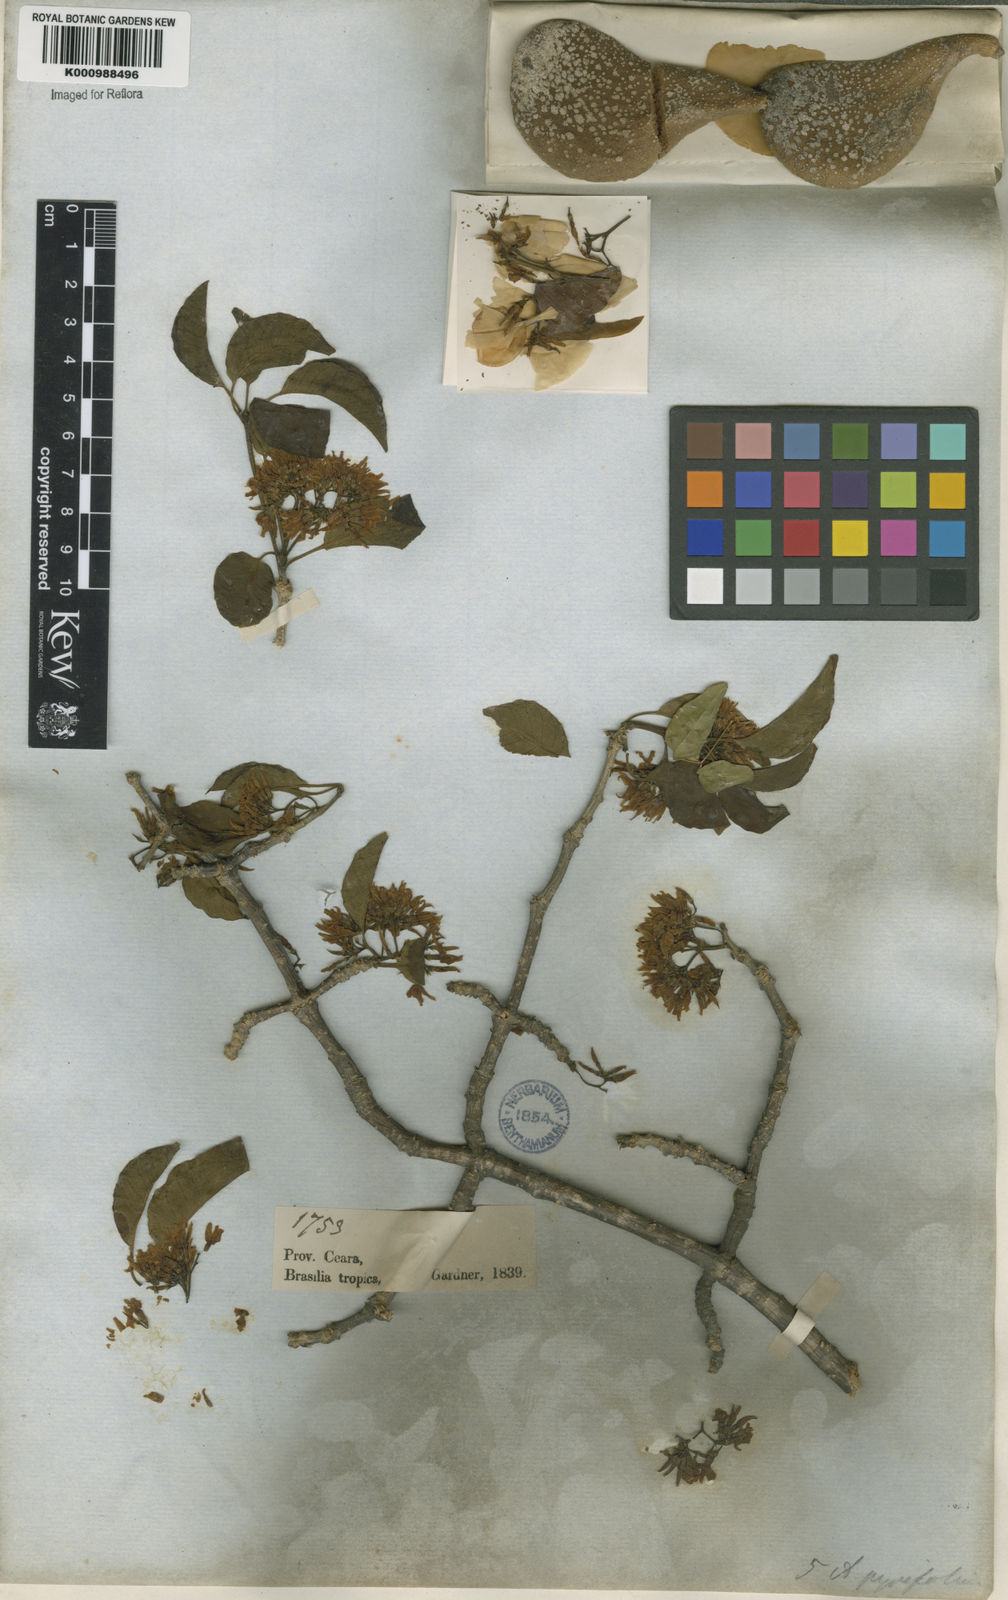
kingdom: Plantae
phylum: Tracheophyta
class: Magnoliopsida
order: Gentianales
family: Apocynaceae
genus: Aspidosperma
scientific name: Aspidosperma pyrifolium
